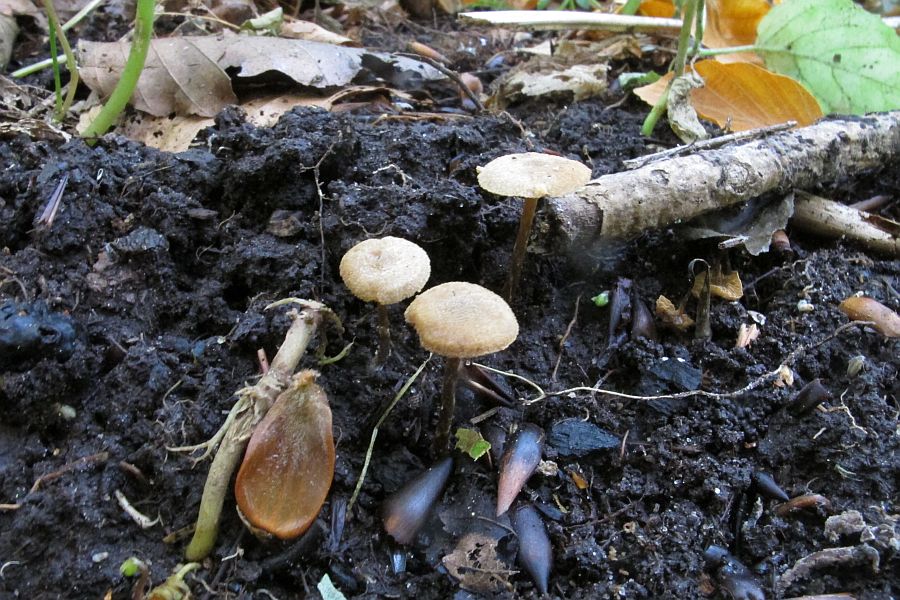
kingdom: Fungi
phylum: Basidiomycota
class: Agaricomycetes
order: Agaricales
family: Hymenogastraceae
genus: Naucoria
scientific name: Naucoria escharioides
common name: lys elle-knaphat
